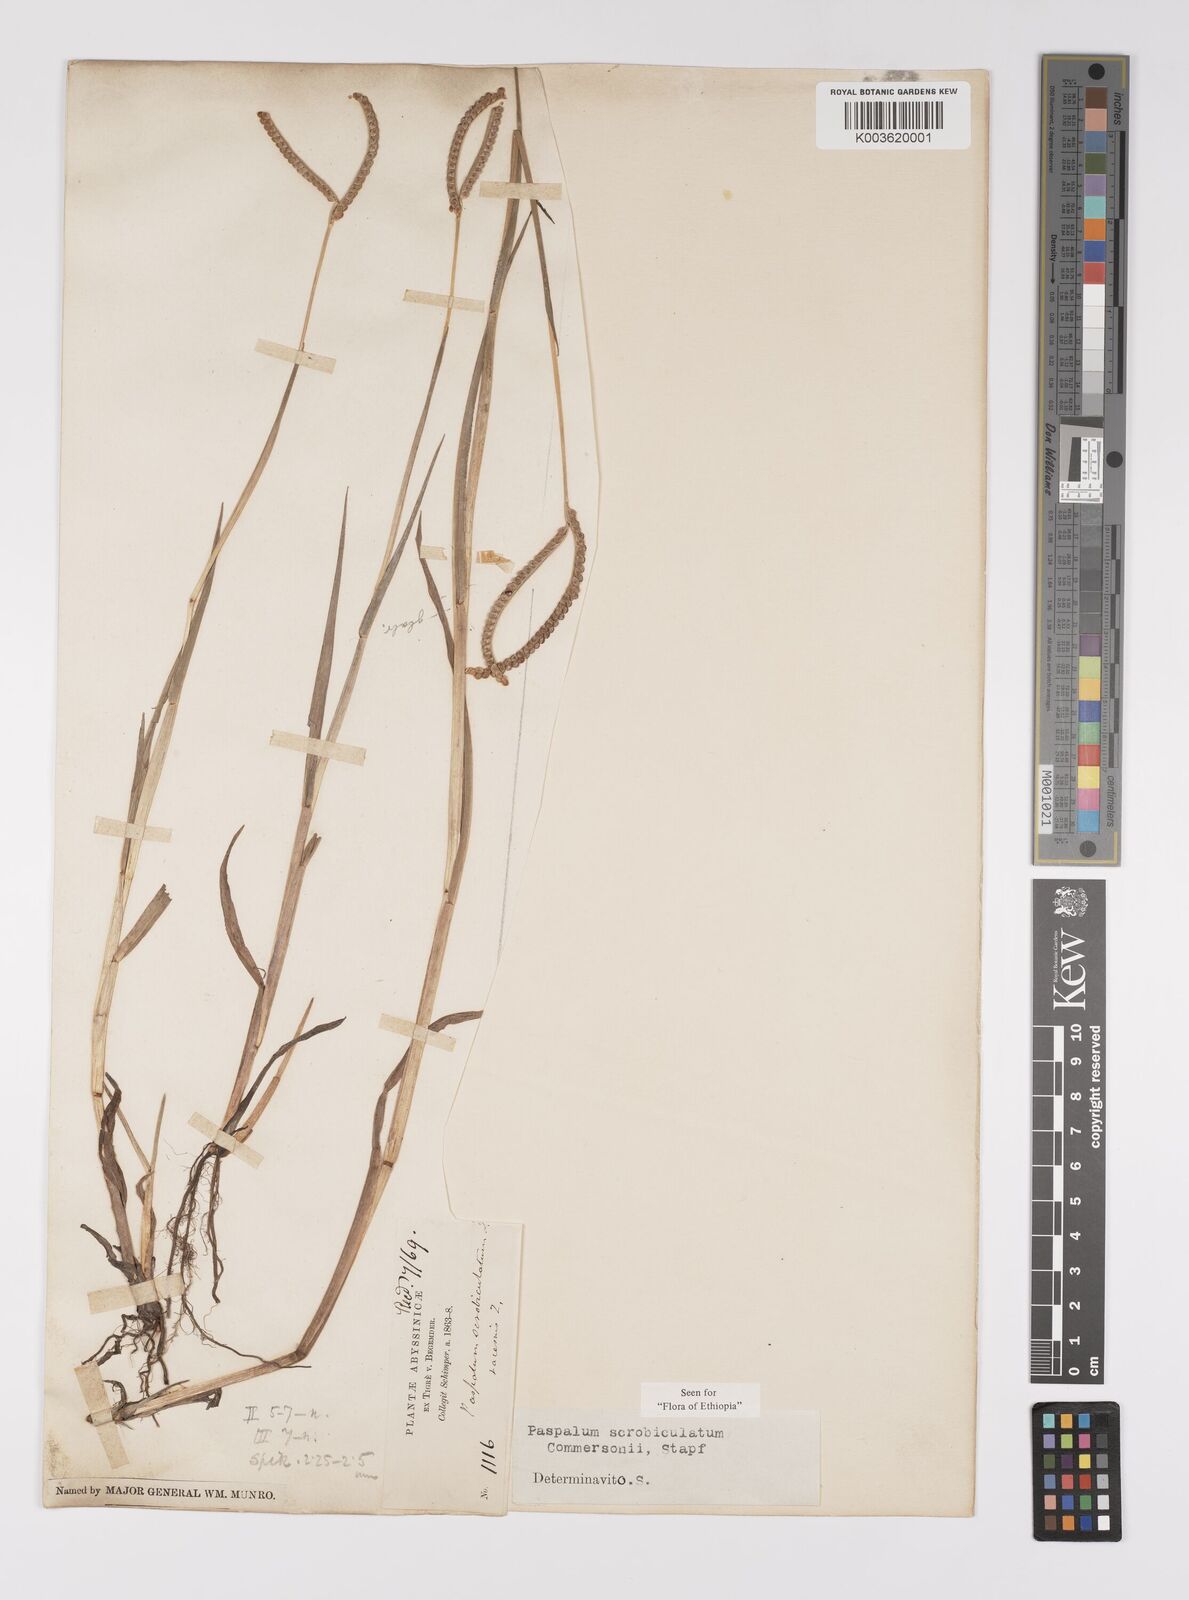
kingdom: Plantae
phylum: Tracheophyta
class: Liliopsida
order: Poales
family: Poaceae
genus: Paspalum
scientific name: Paspalum scrobiculatum
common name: Kodo millet
